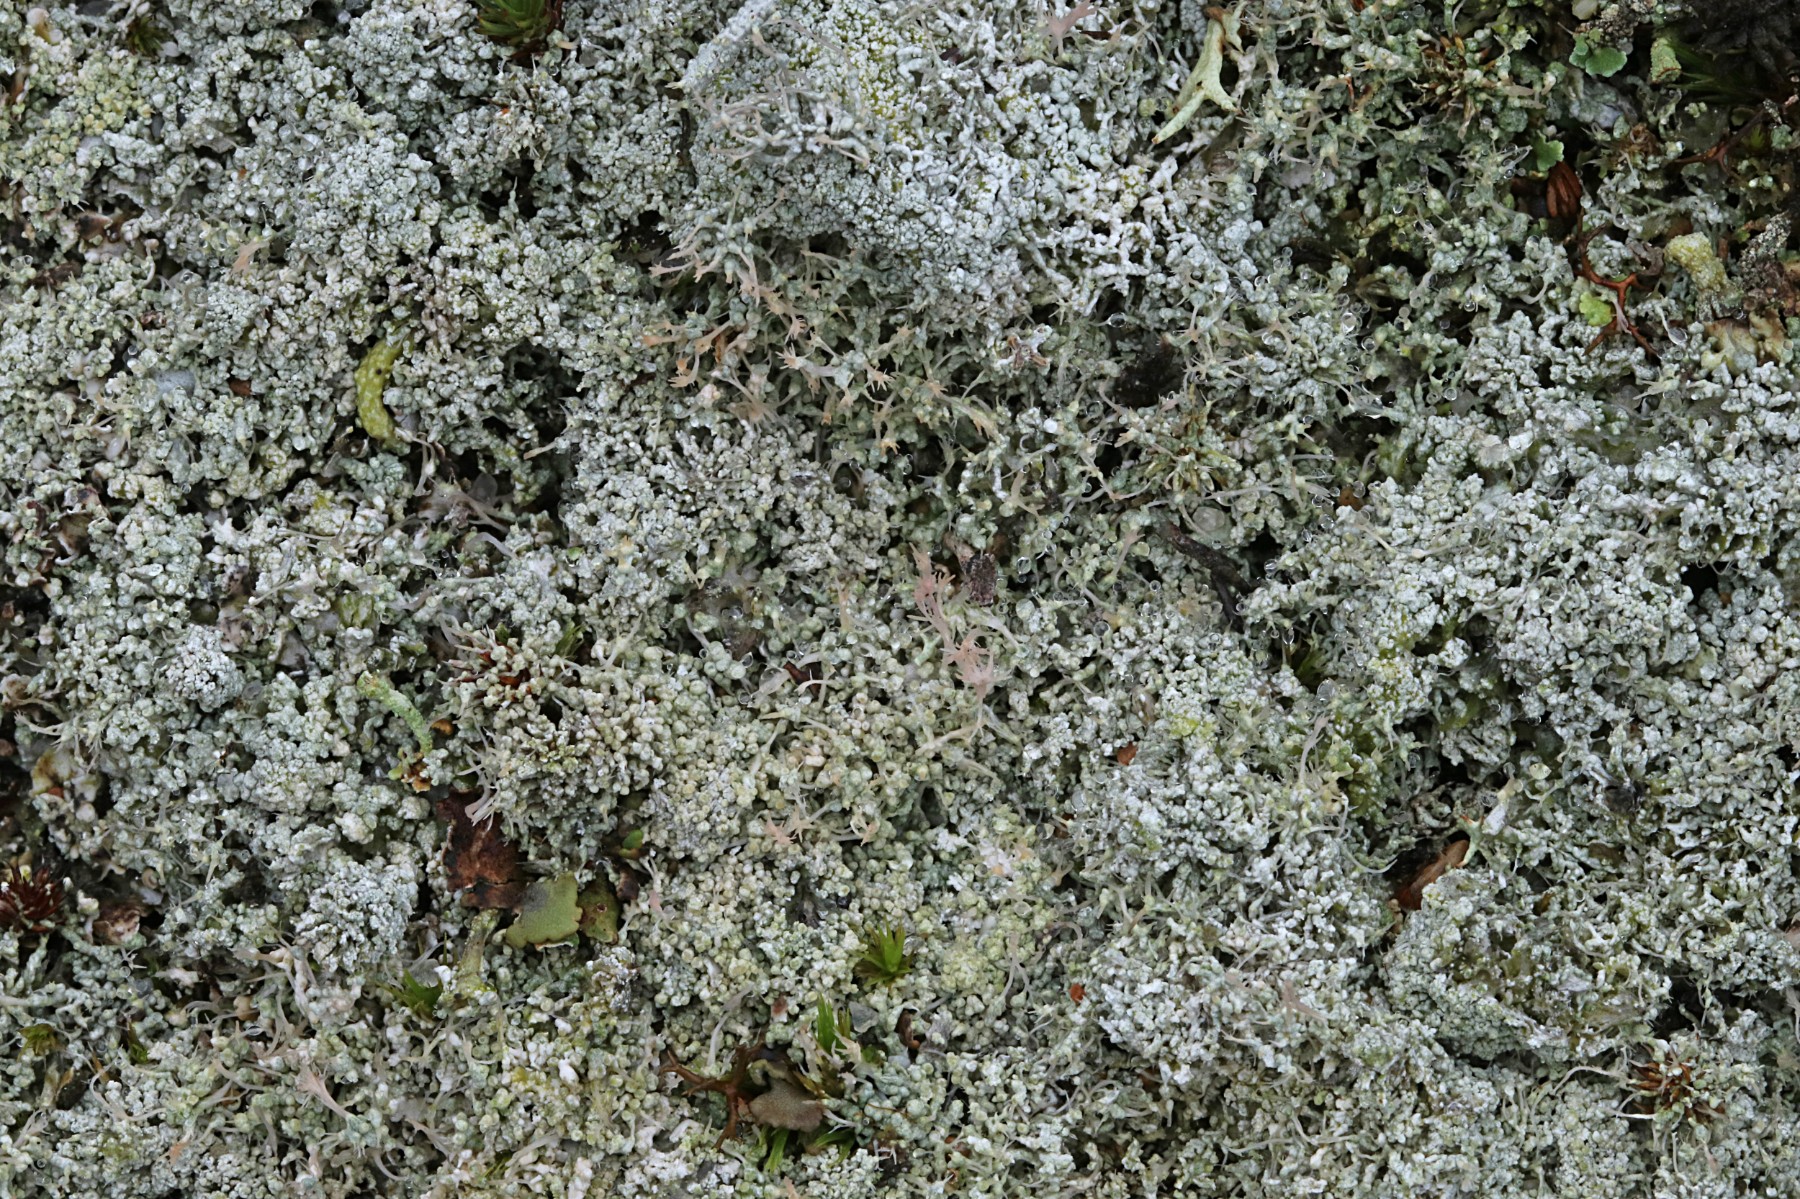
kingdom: Fungi
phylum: Ascomycota
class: Lecanoromycetes
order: Pertusariales
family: Ochrolechiaceae
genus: Ochrolechia
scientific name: Ochrolechia frigida
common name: fjeld-blegskivelav
